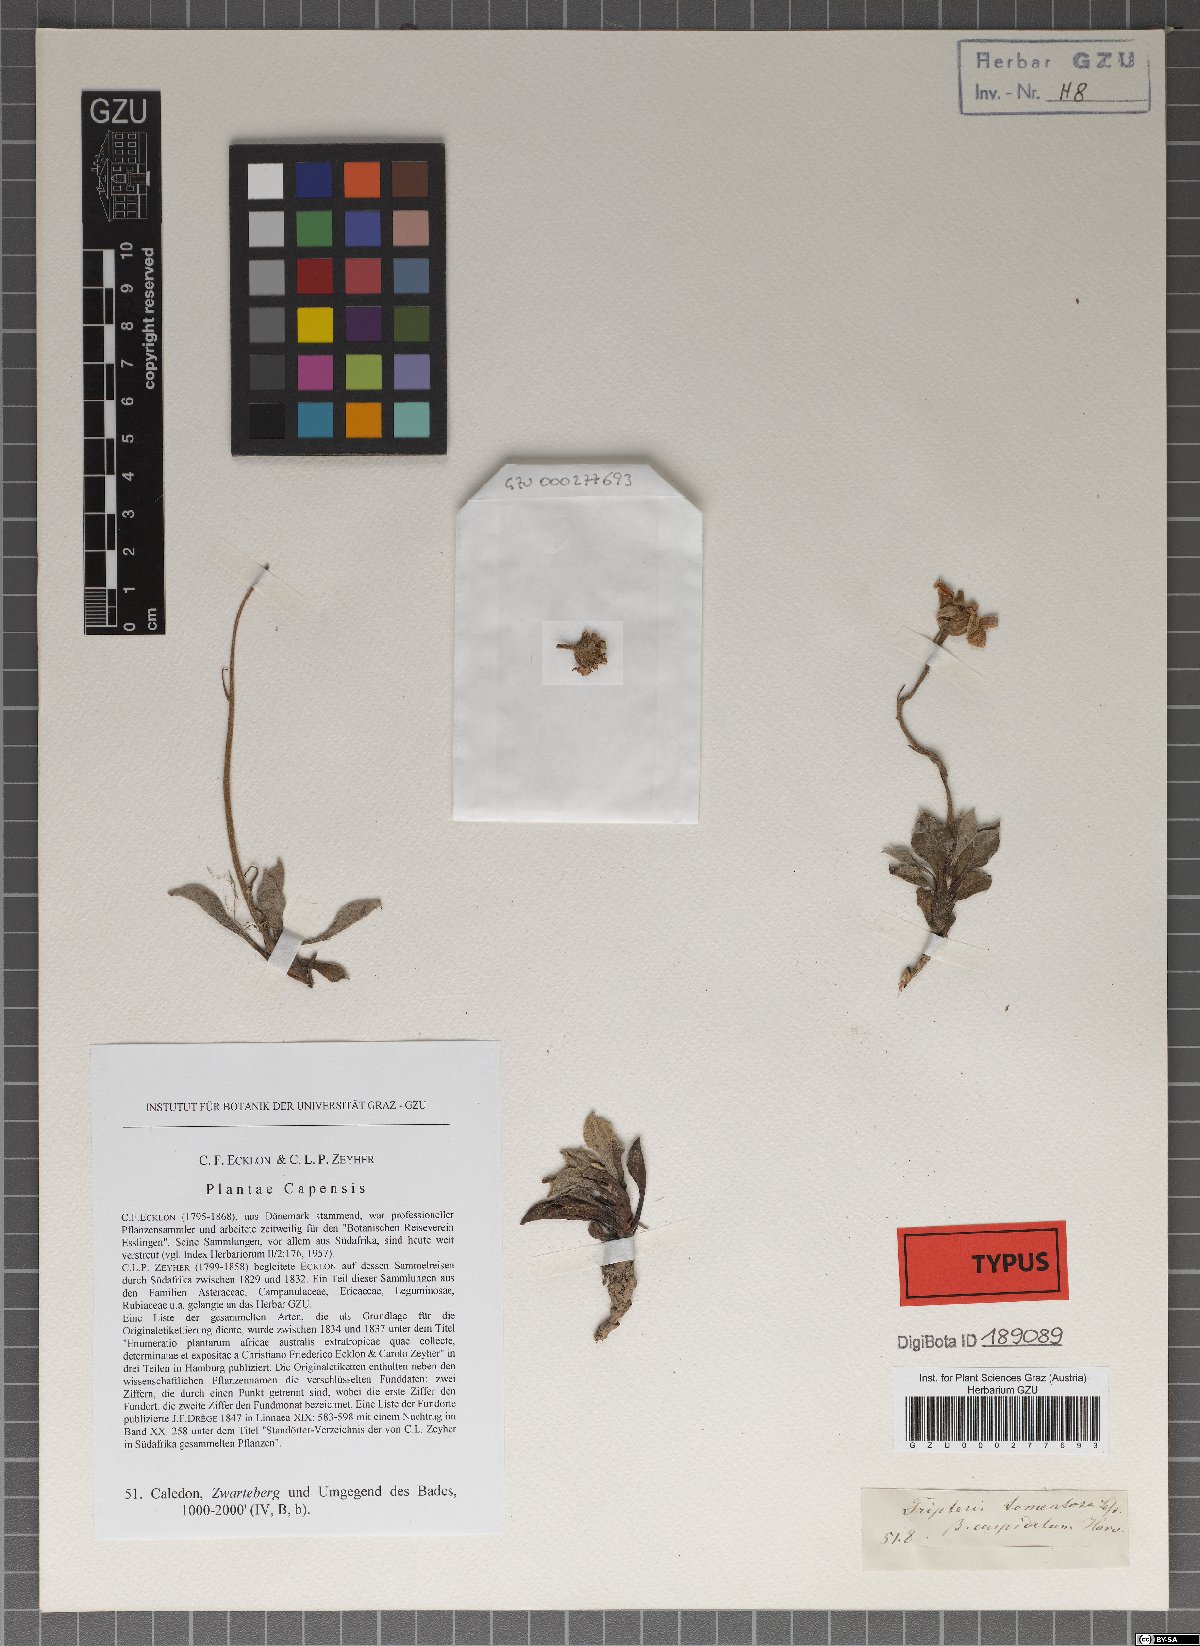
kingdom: Plantae
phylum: Tracheophyta
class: Magnoliopsida
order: Asterales
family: Asteraceae
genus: Osteospermum
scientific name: Osteospermum tomentosum
